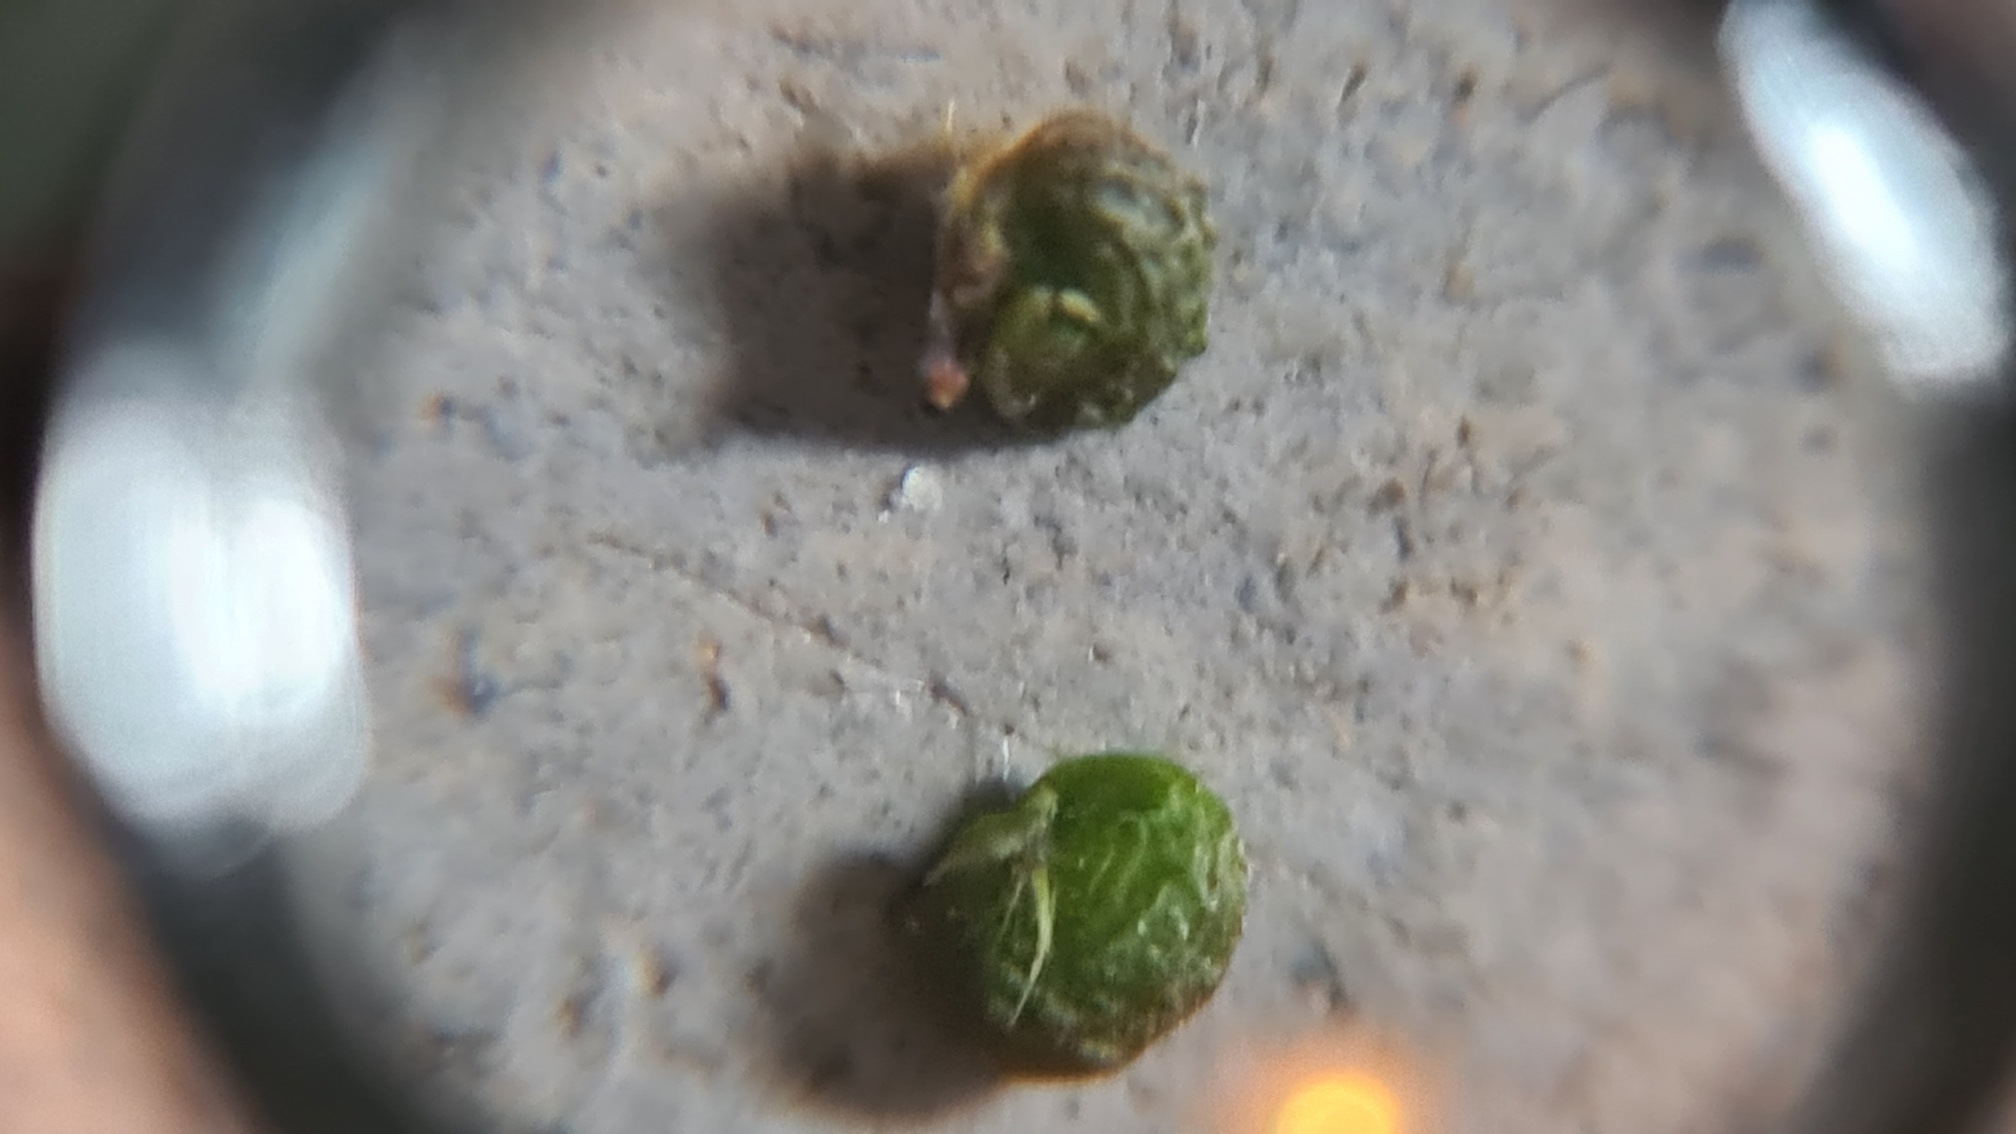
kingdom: Plantae
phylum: Tracheophyta
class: Magnoliopsida
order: Fabales
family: Fabaceae
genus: Medicago
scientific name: Medicago lupulina
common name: Humle-sneglebælg
